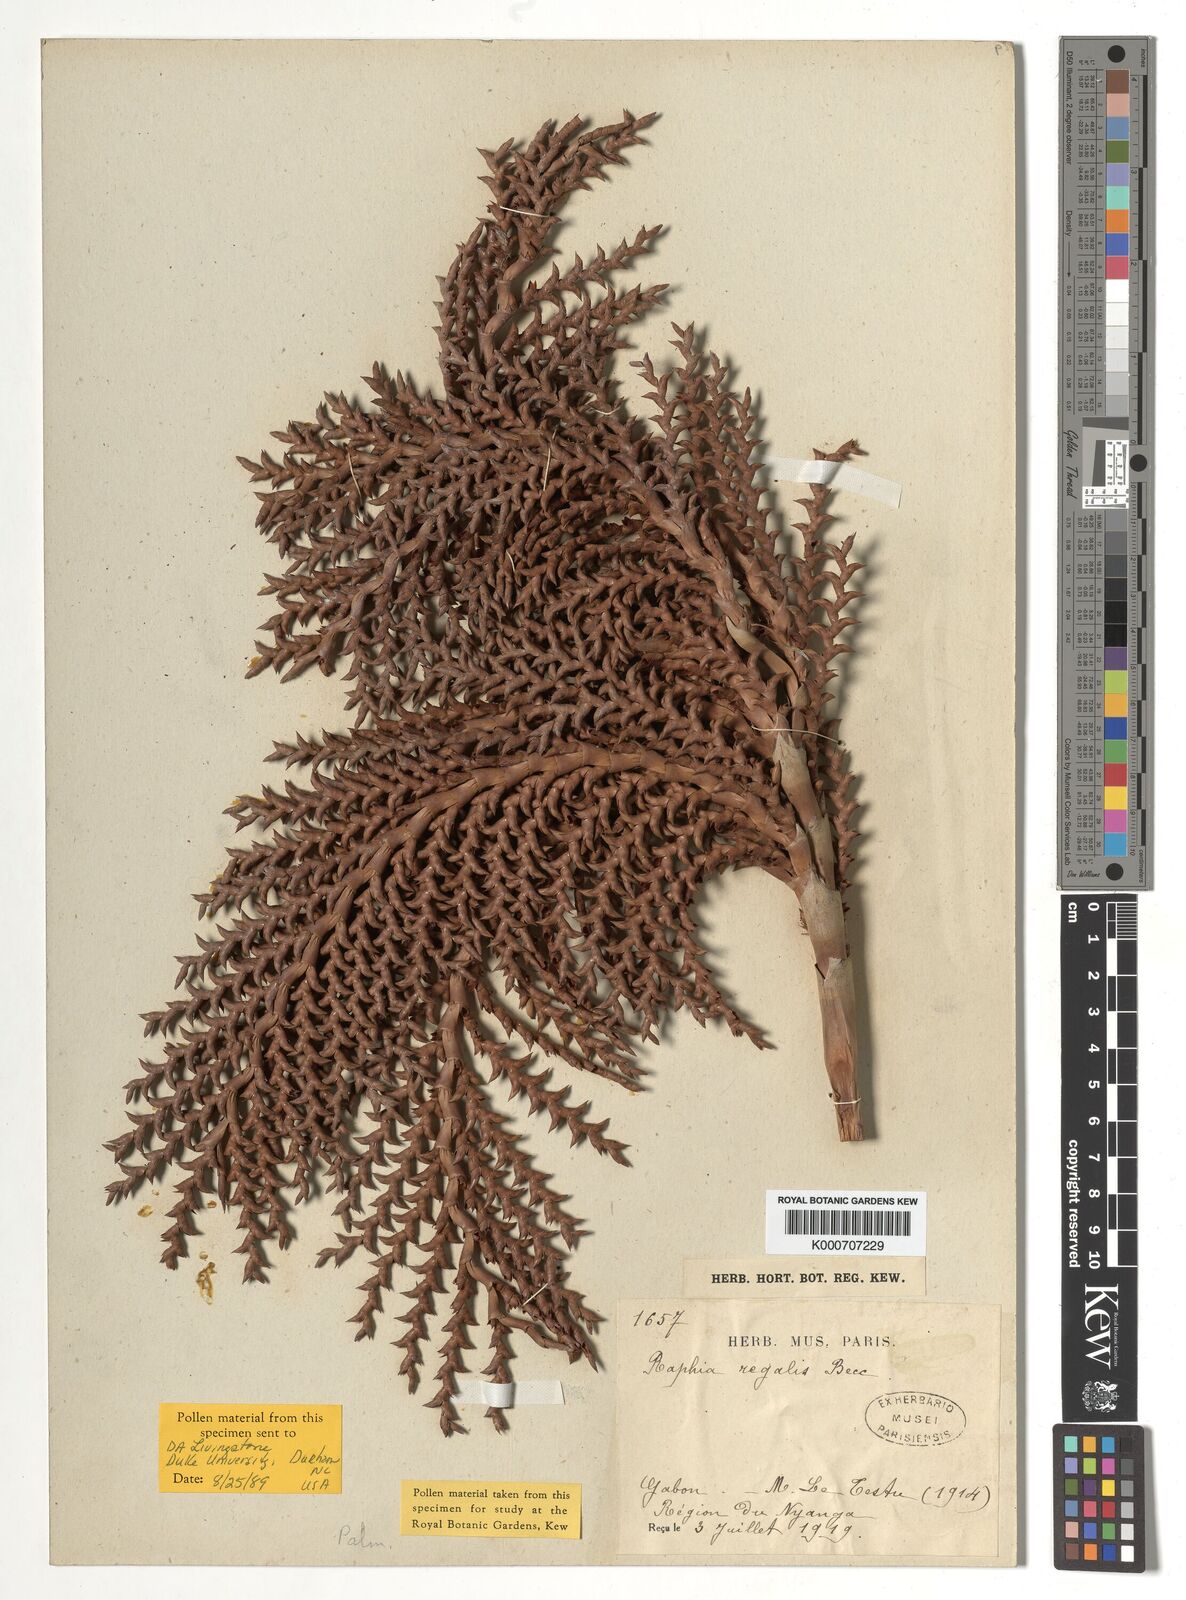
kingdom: Plantae
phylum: Tracheophyta
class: Liliopsida
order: Arecales
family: Arecaceae
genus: Raphia
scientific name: Raphia regalis
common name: Raphia palm
